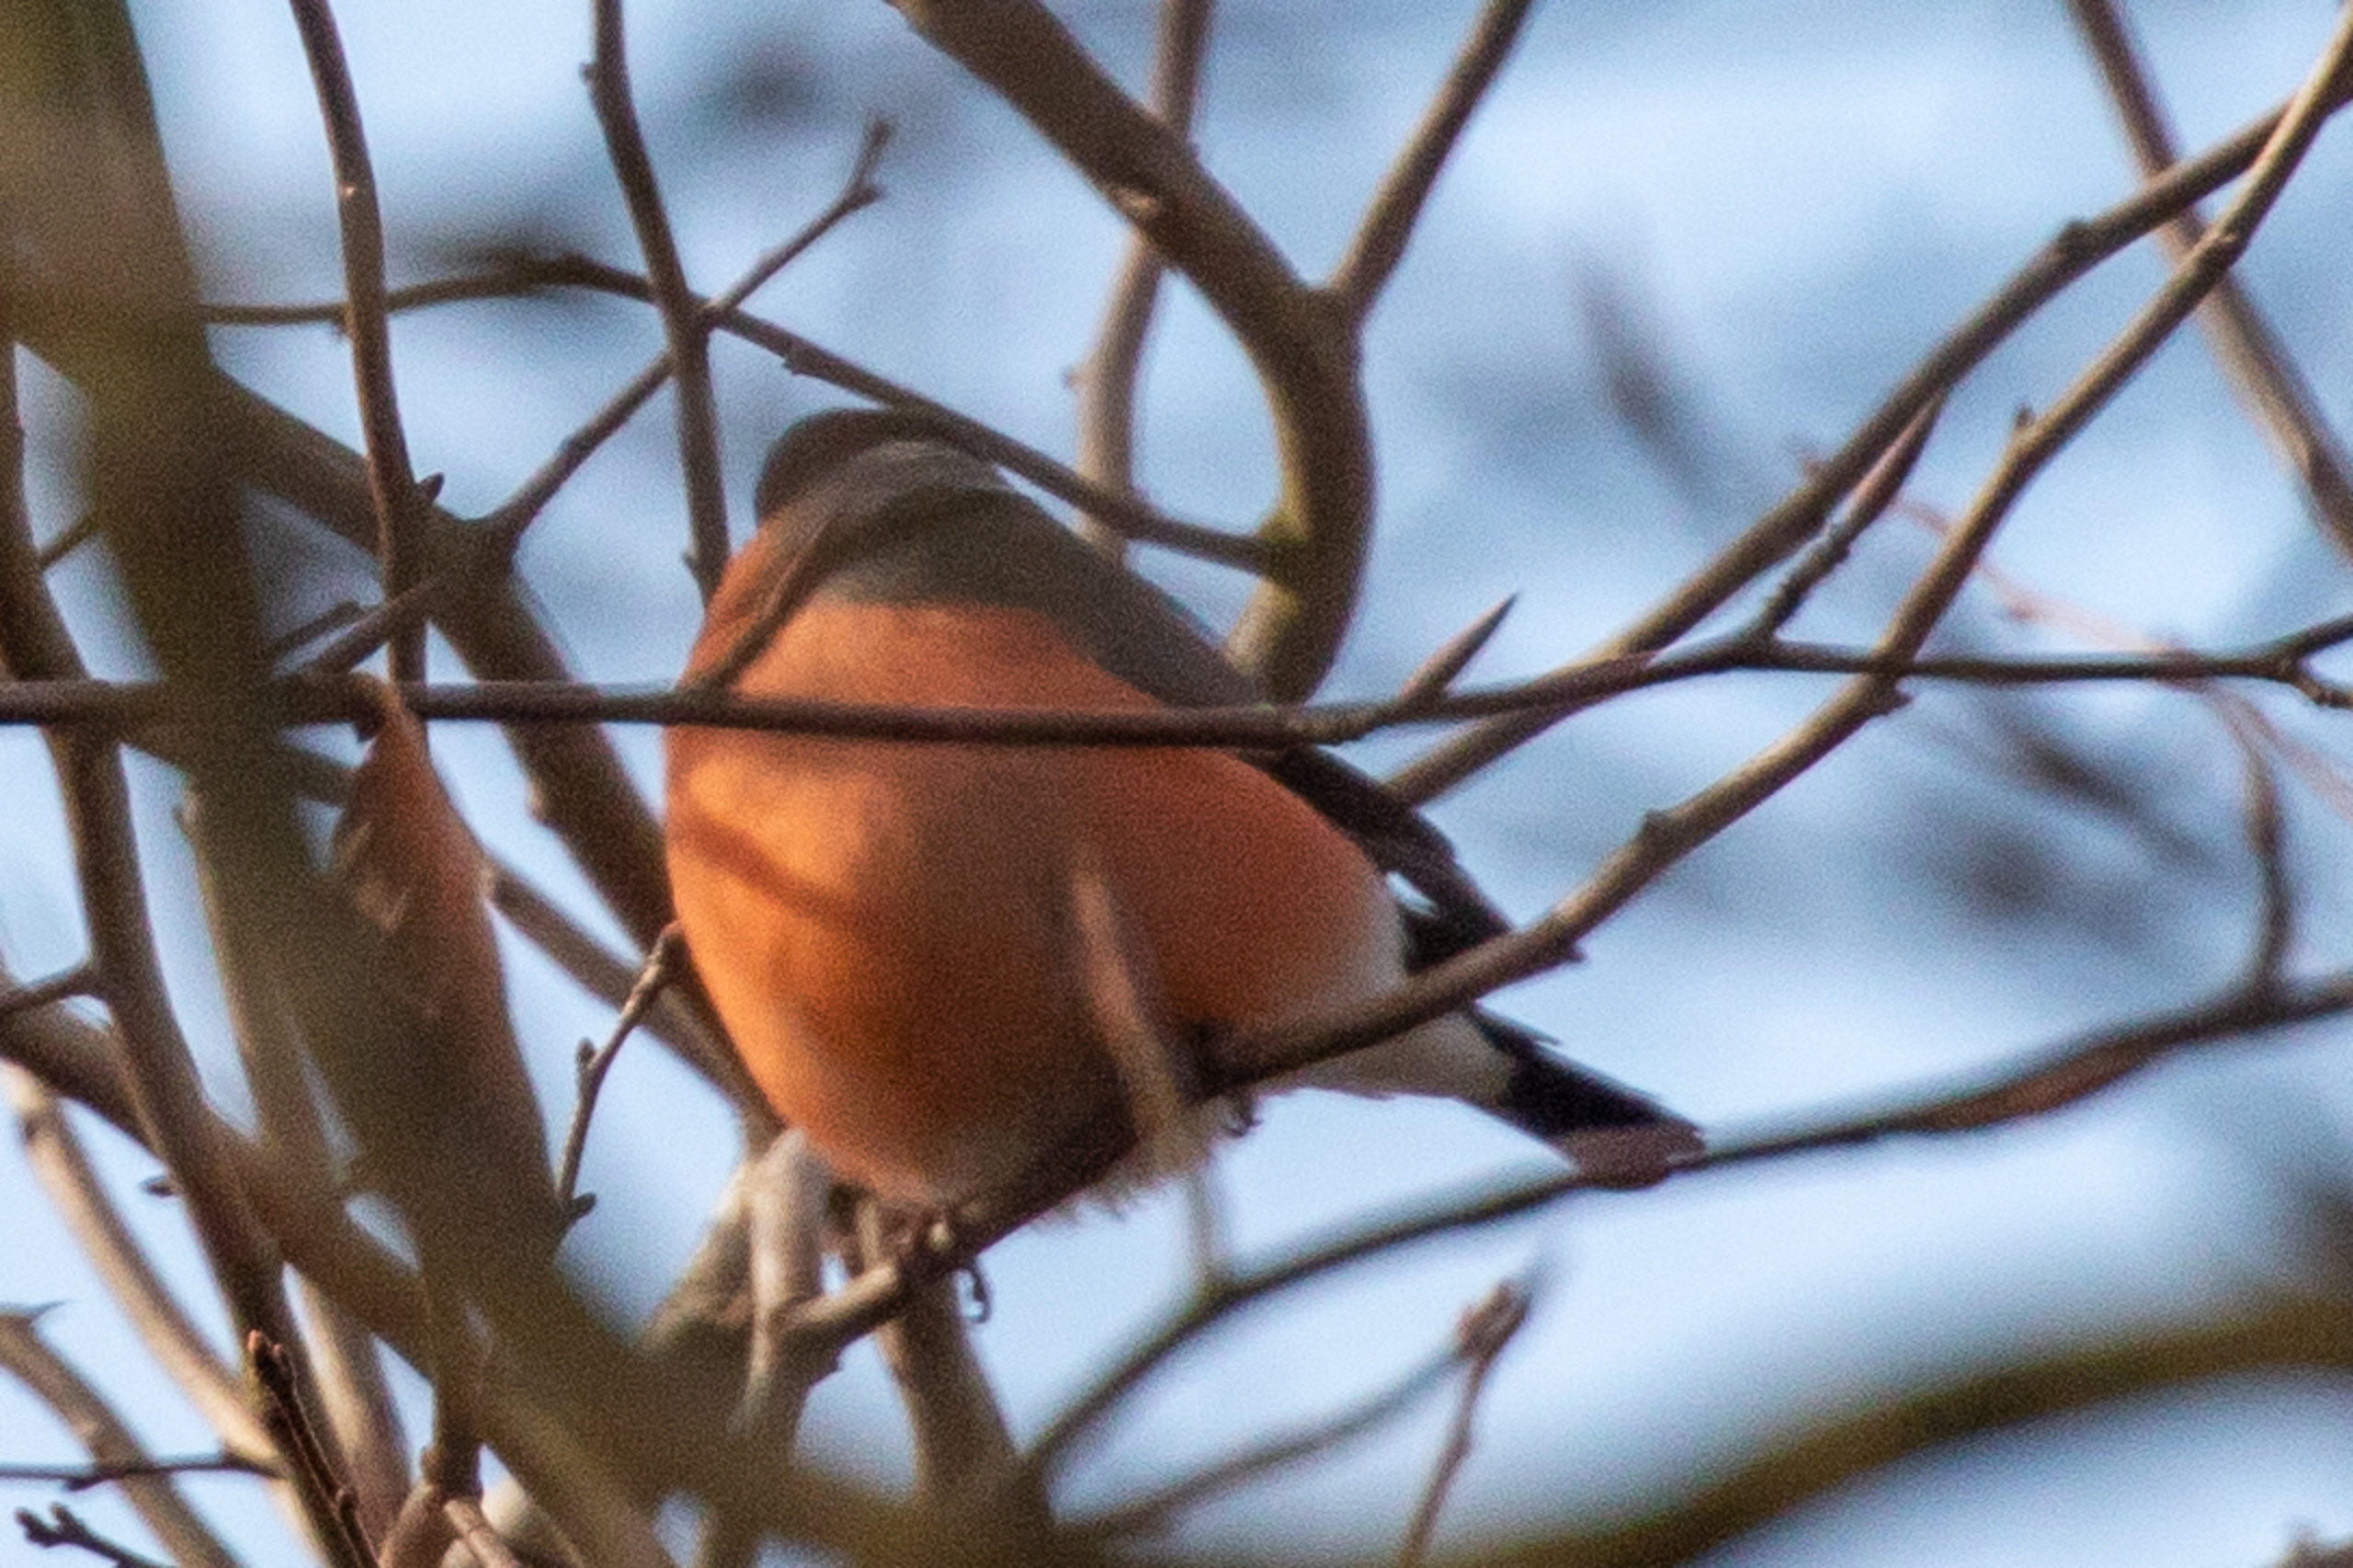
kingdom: Animalia
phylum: Chordata
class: Aves
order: Passeriformes
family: Fringillidae
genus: Pyrrhula
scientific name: Pyrrhula pyrrhula
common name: Dompap
